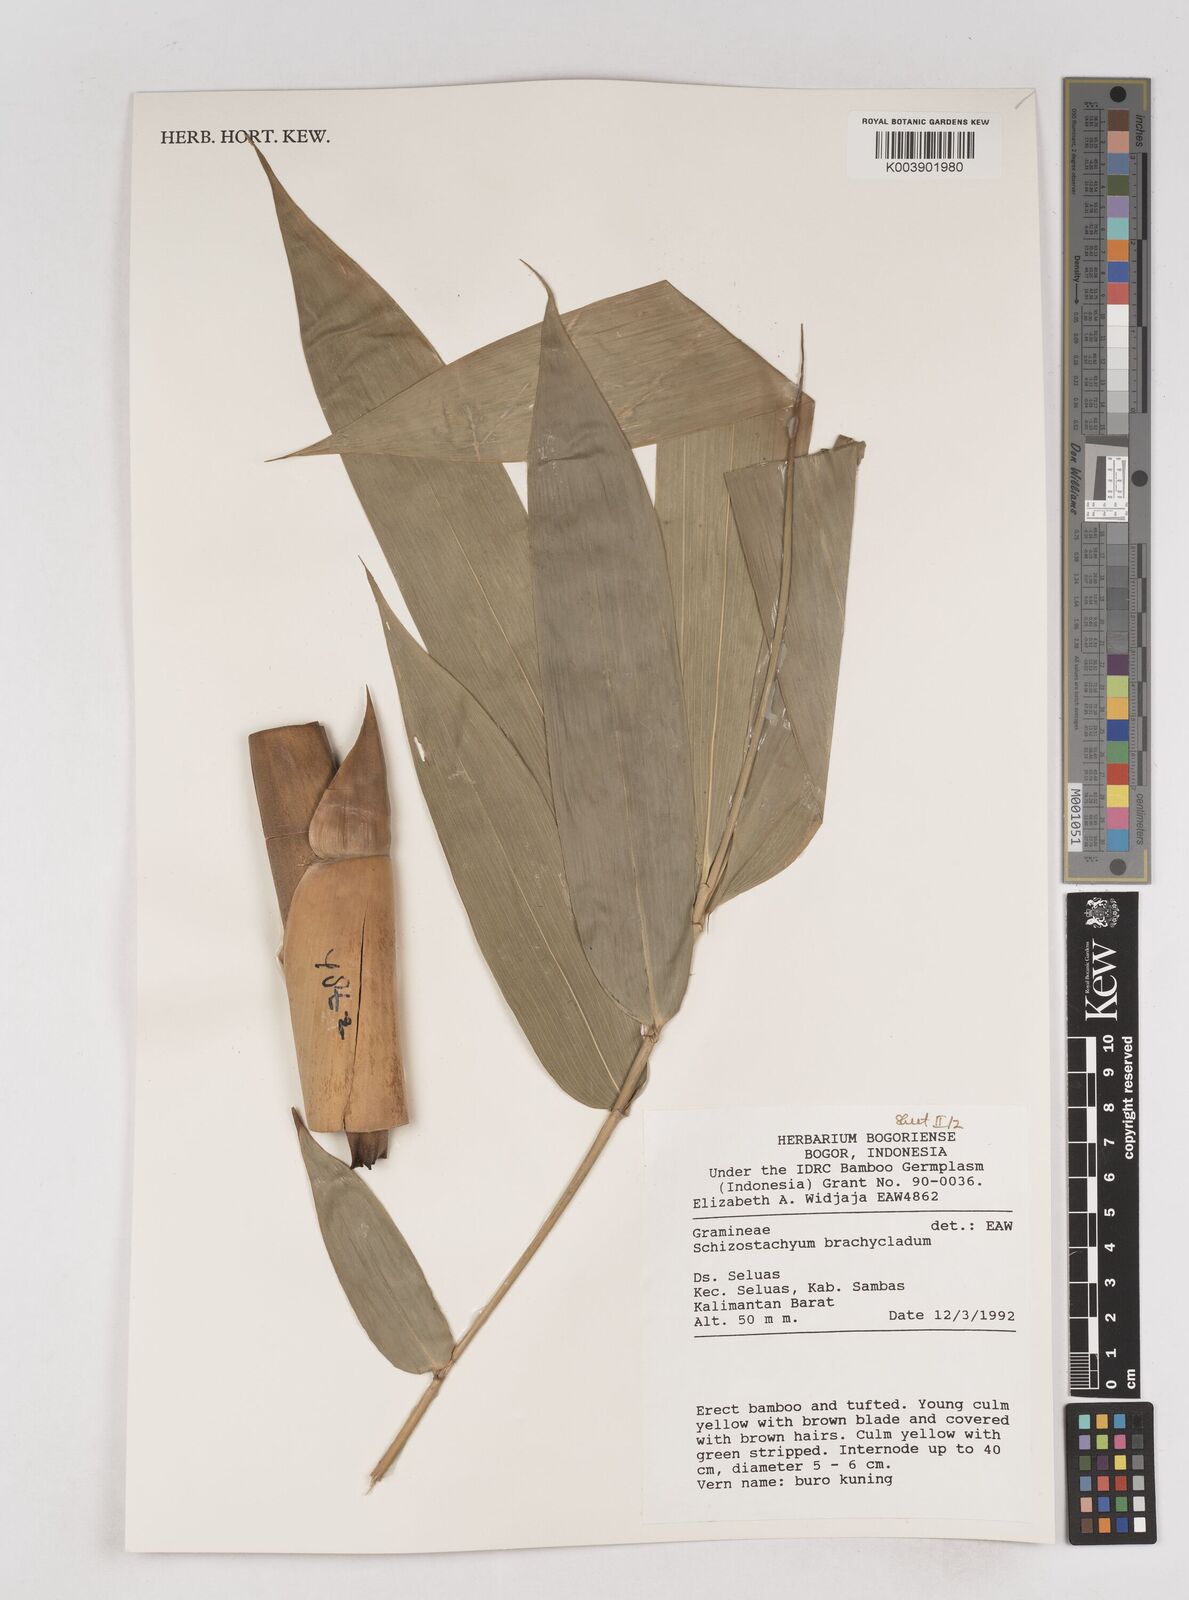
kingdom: Plantae
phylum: Tracheophyta
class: Liliopsida
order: Poales
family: Poaceae
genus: Schizostachyum
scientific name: Schizostachyum brachycladum
